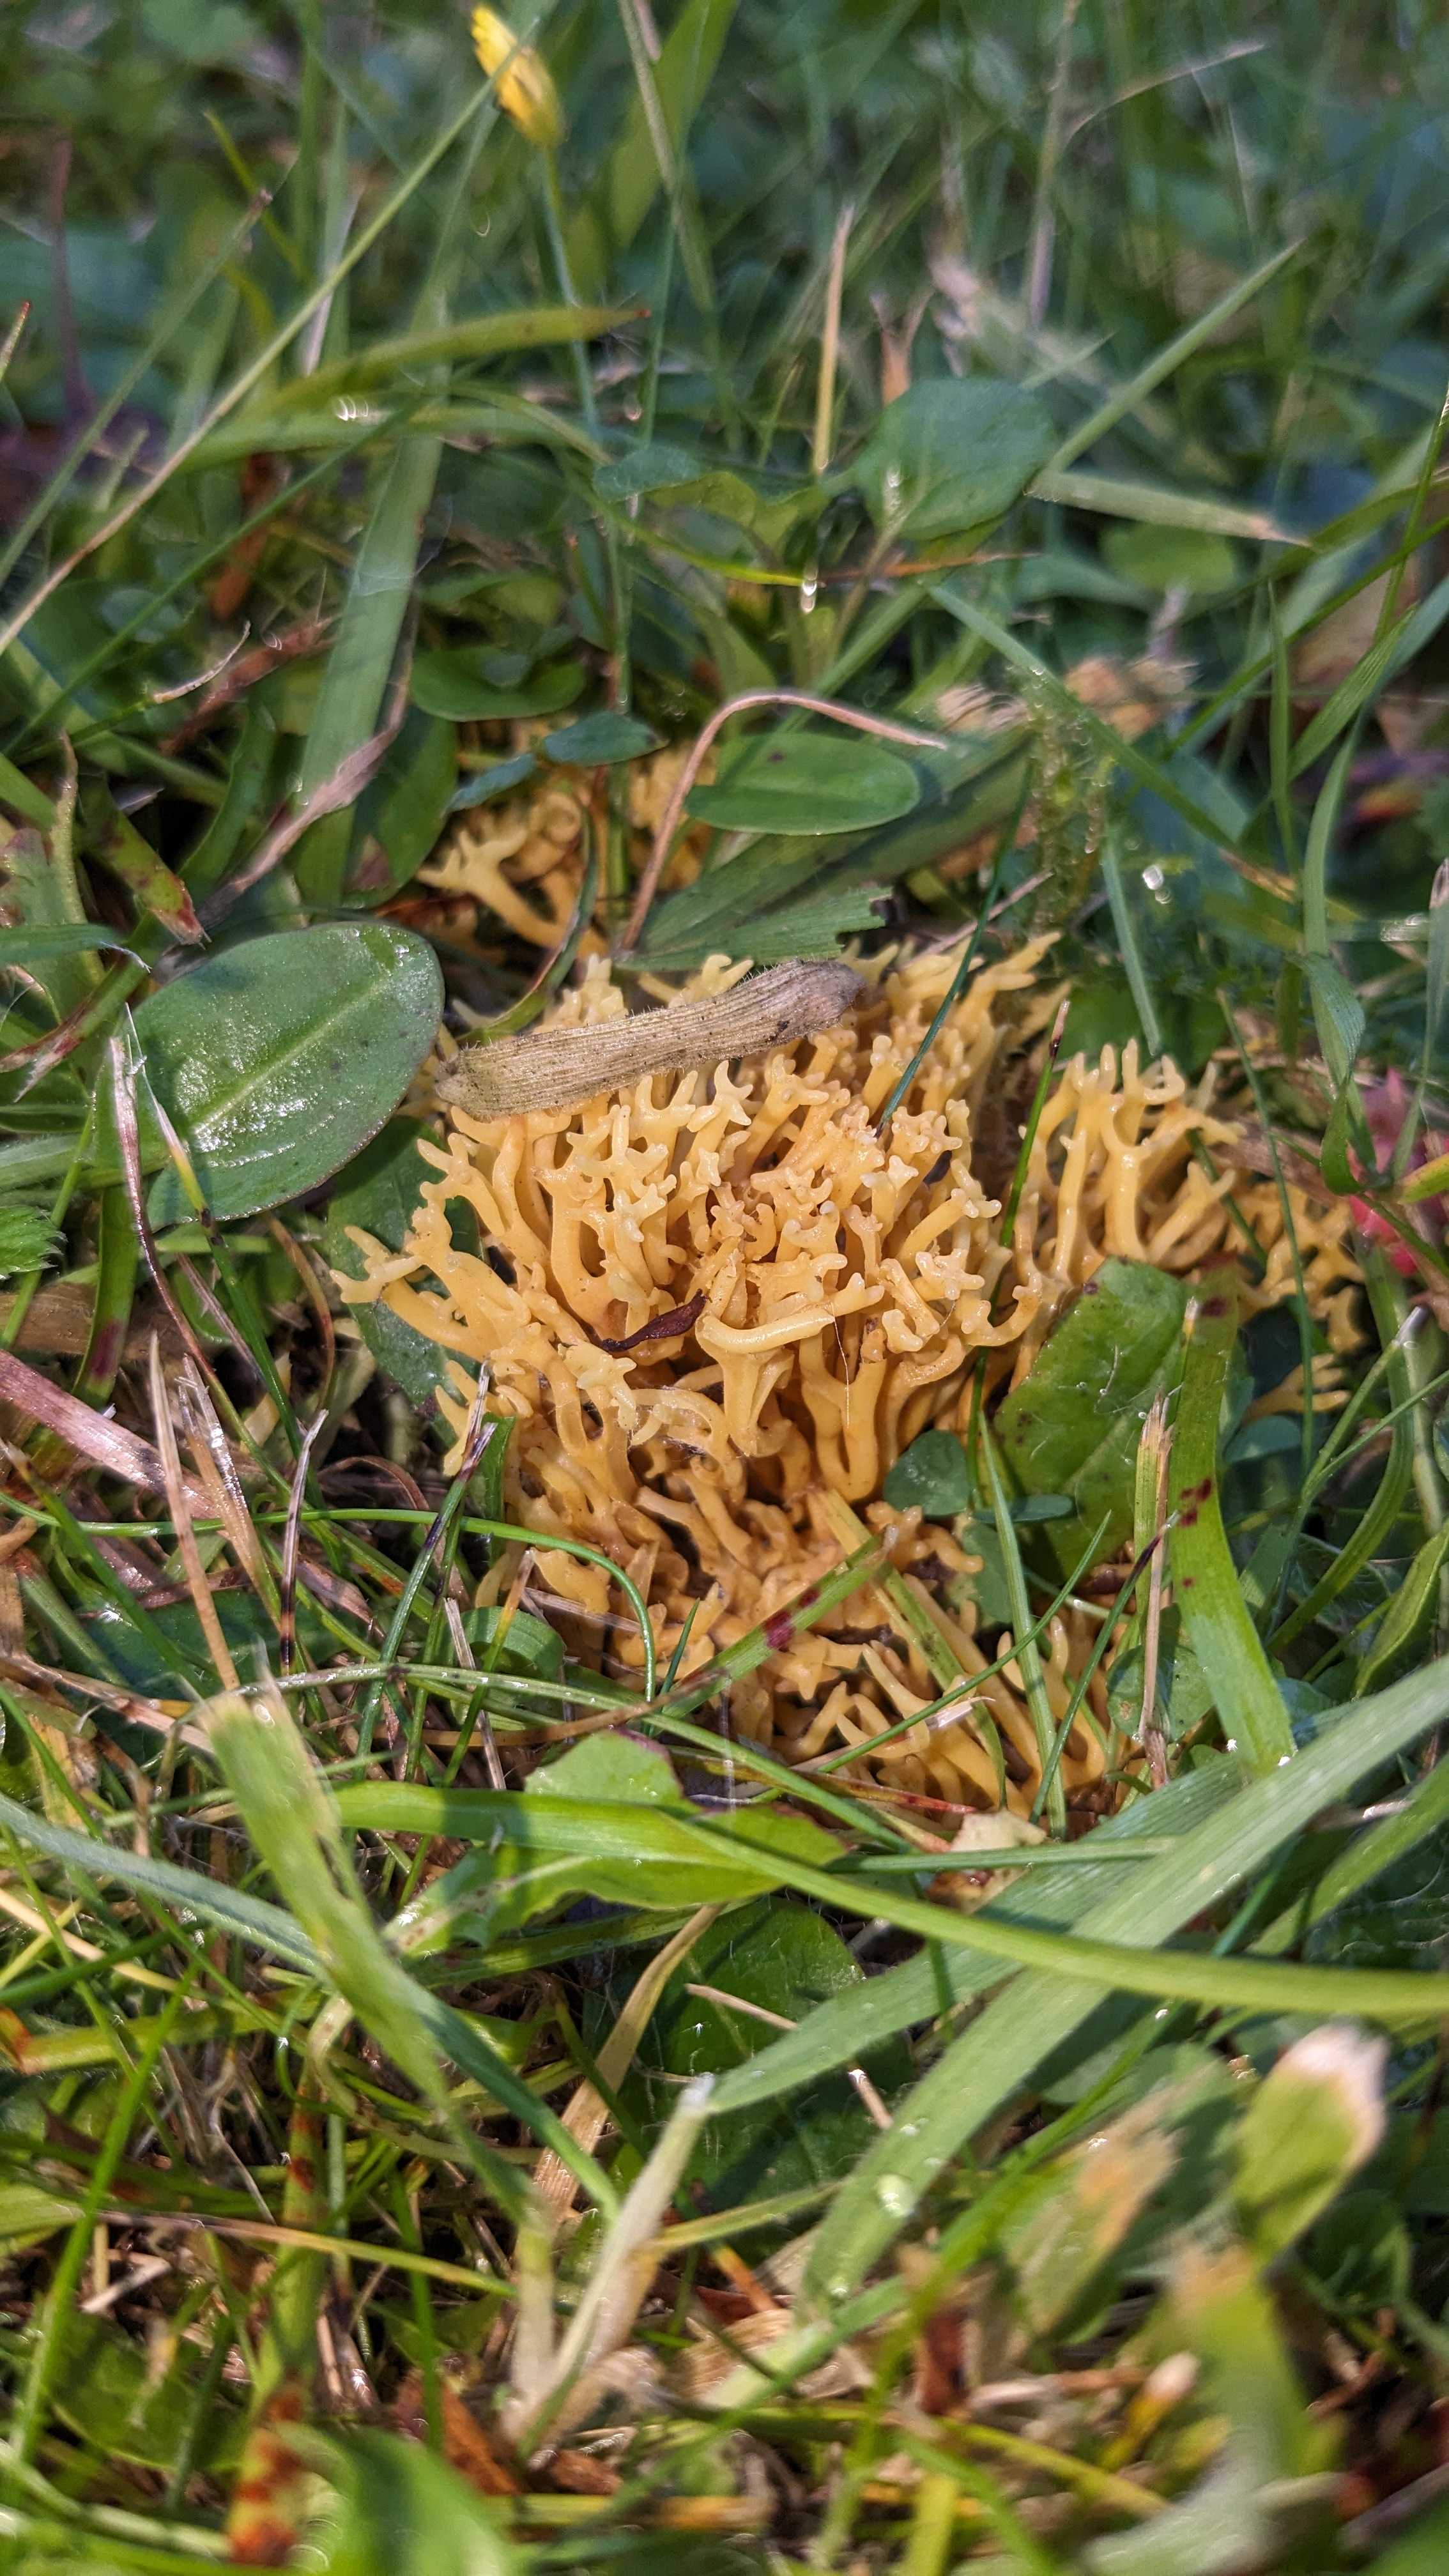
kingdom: Fungi
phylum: Basidiomycota
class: Agaricomycetes
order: Agaricales
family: Clavariaceae
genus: Clavulinopsis
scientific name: Clavulinopsis corniculata
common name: eng-køllesvamp
